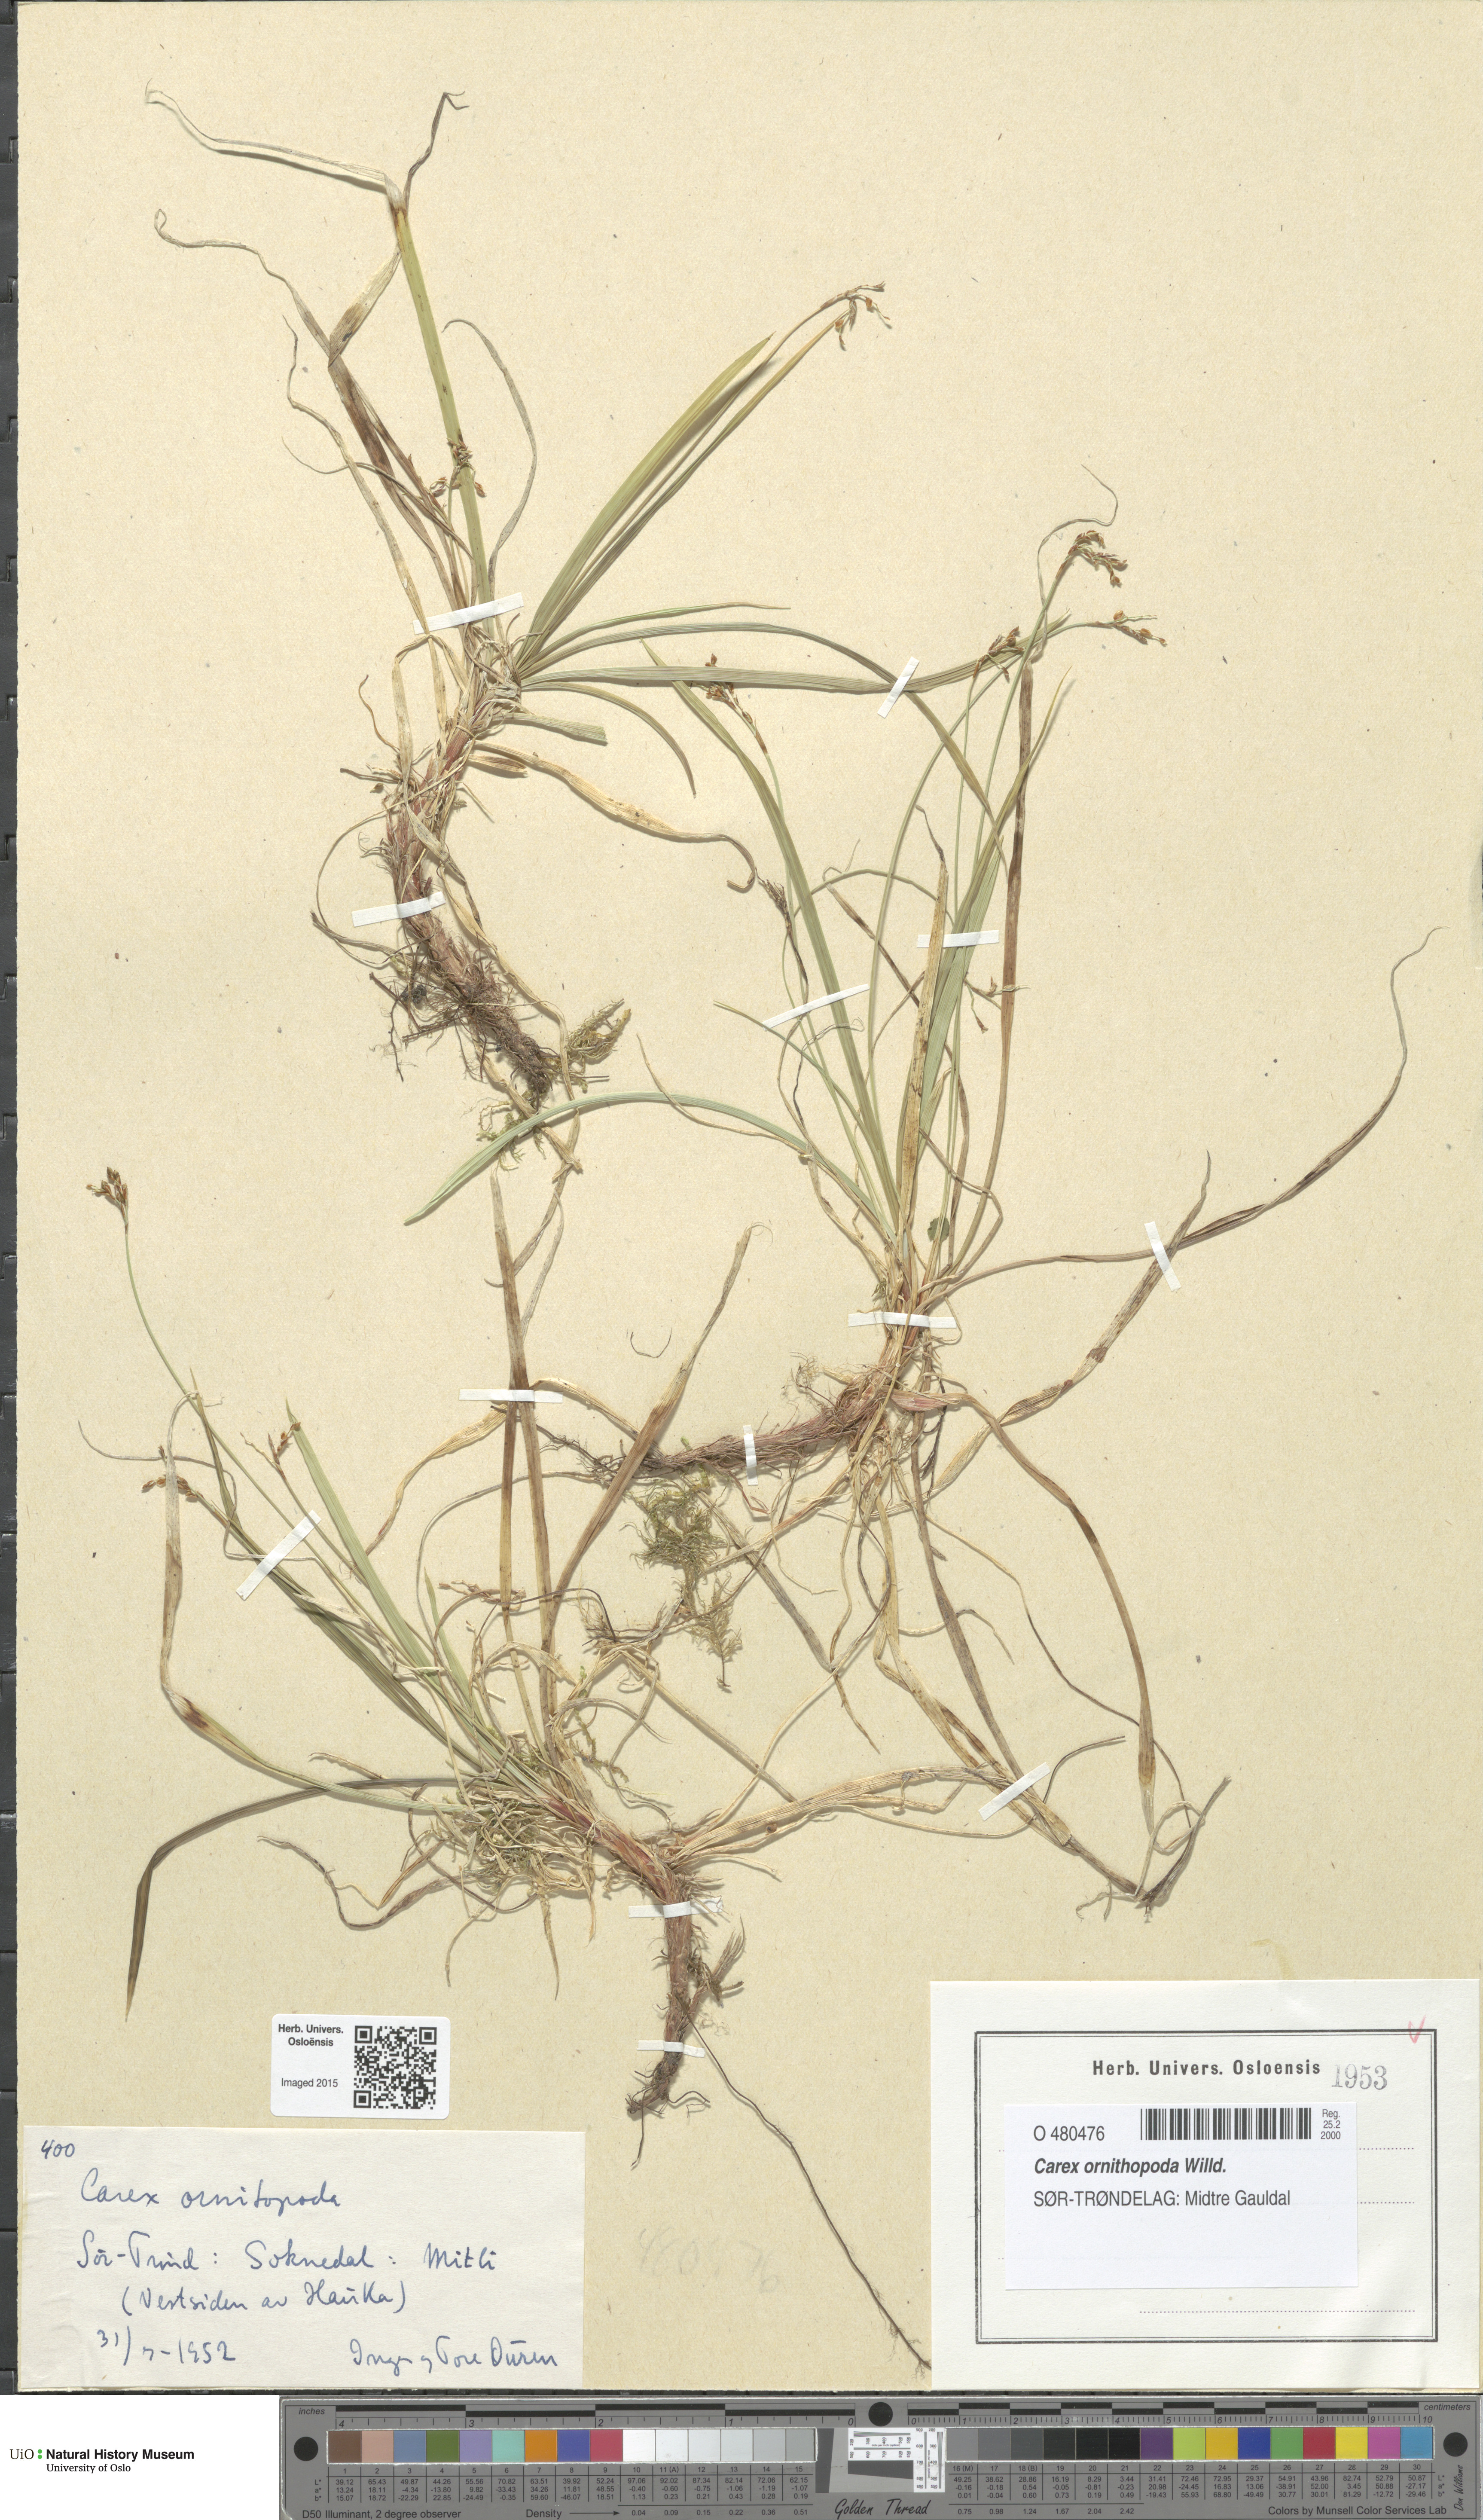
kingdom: Plantae
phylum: Tracheophyta
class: Liliopsida
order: Poales
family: Cyperaceae
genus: Carex
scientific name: Carex ornithopoda
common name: Bird's-foot sedge
